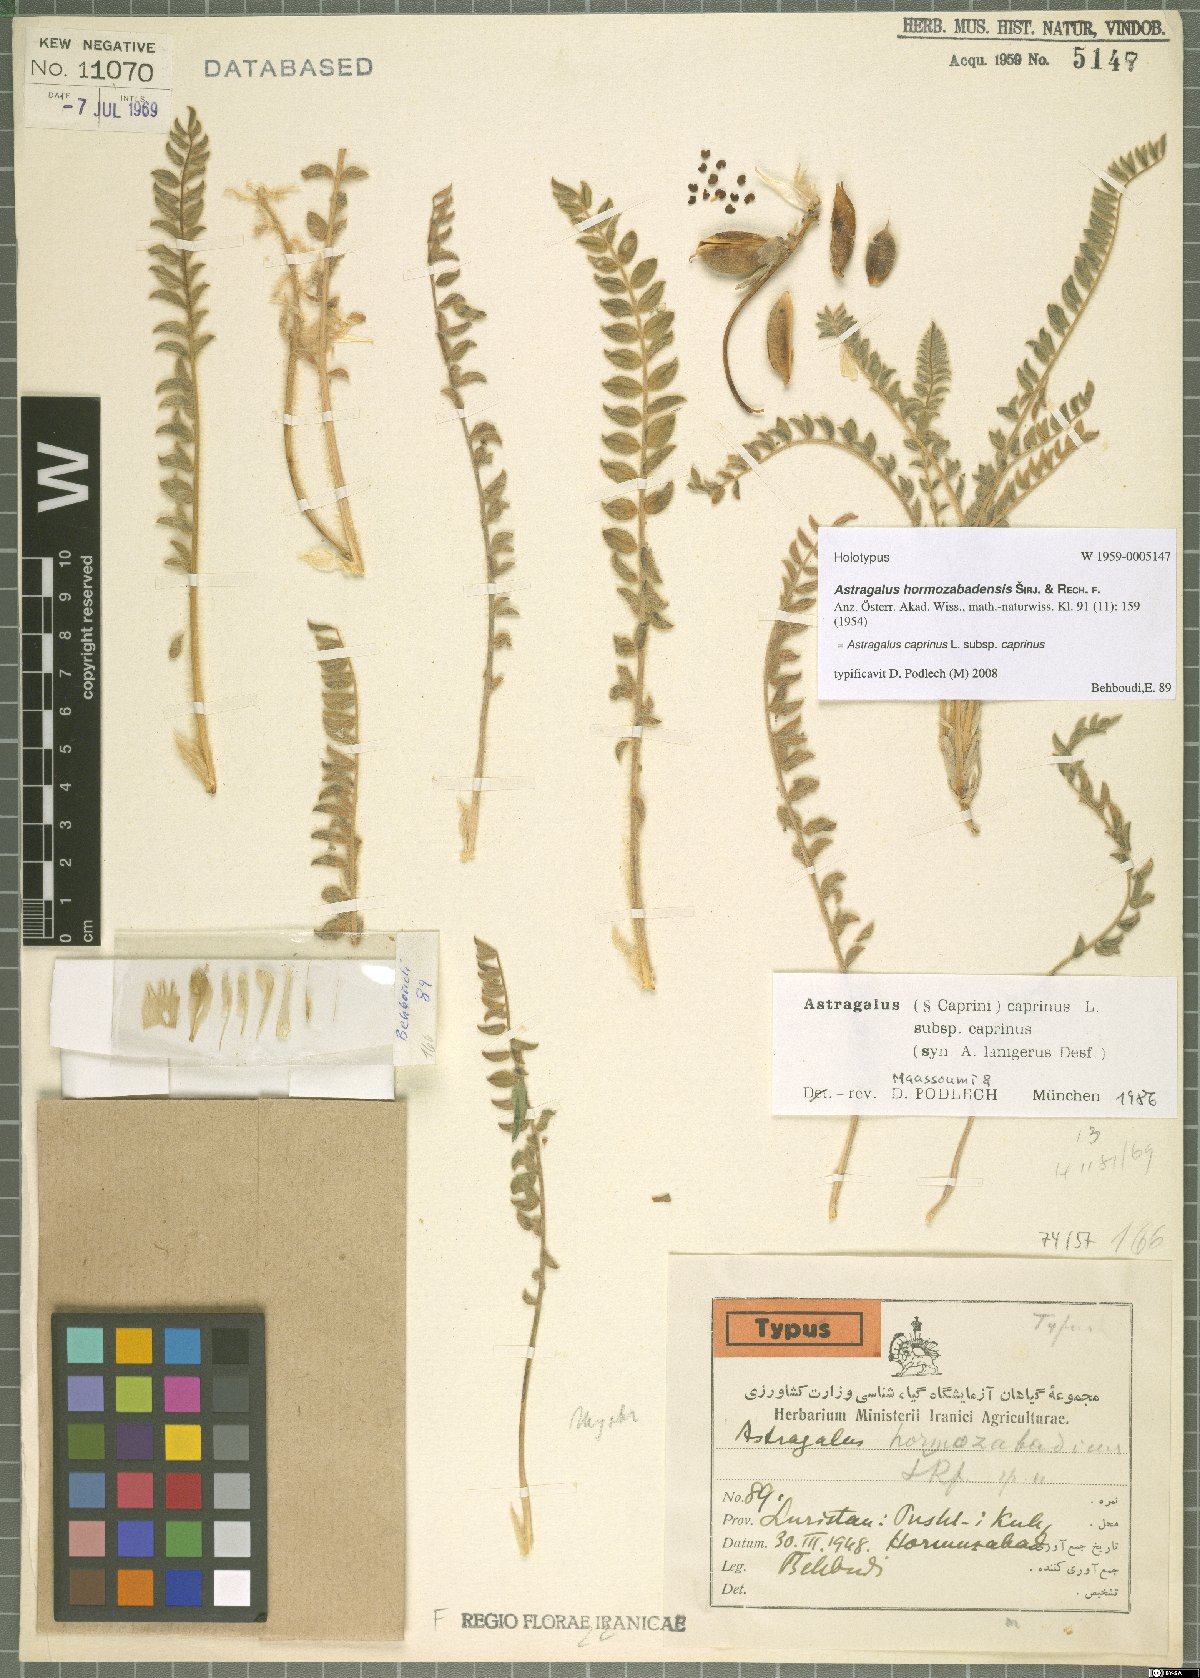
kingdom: Plantae
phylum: Tracheophyta
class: Magnoliopsida
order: Fabales
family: Fabaceae
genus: Astragalus
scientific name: Astragalus caprinus
